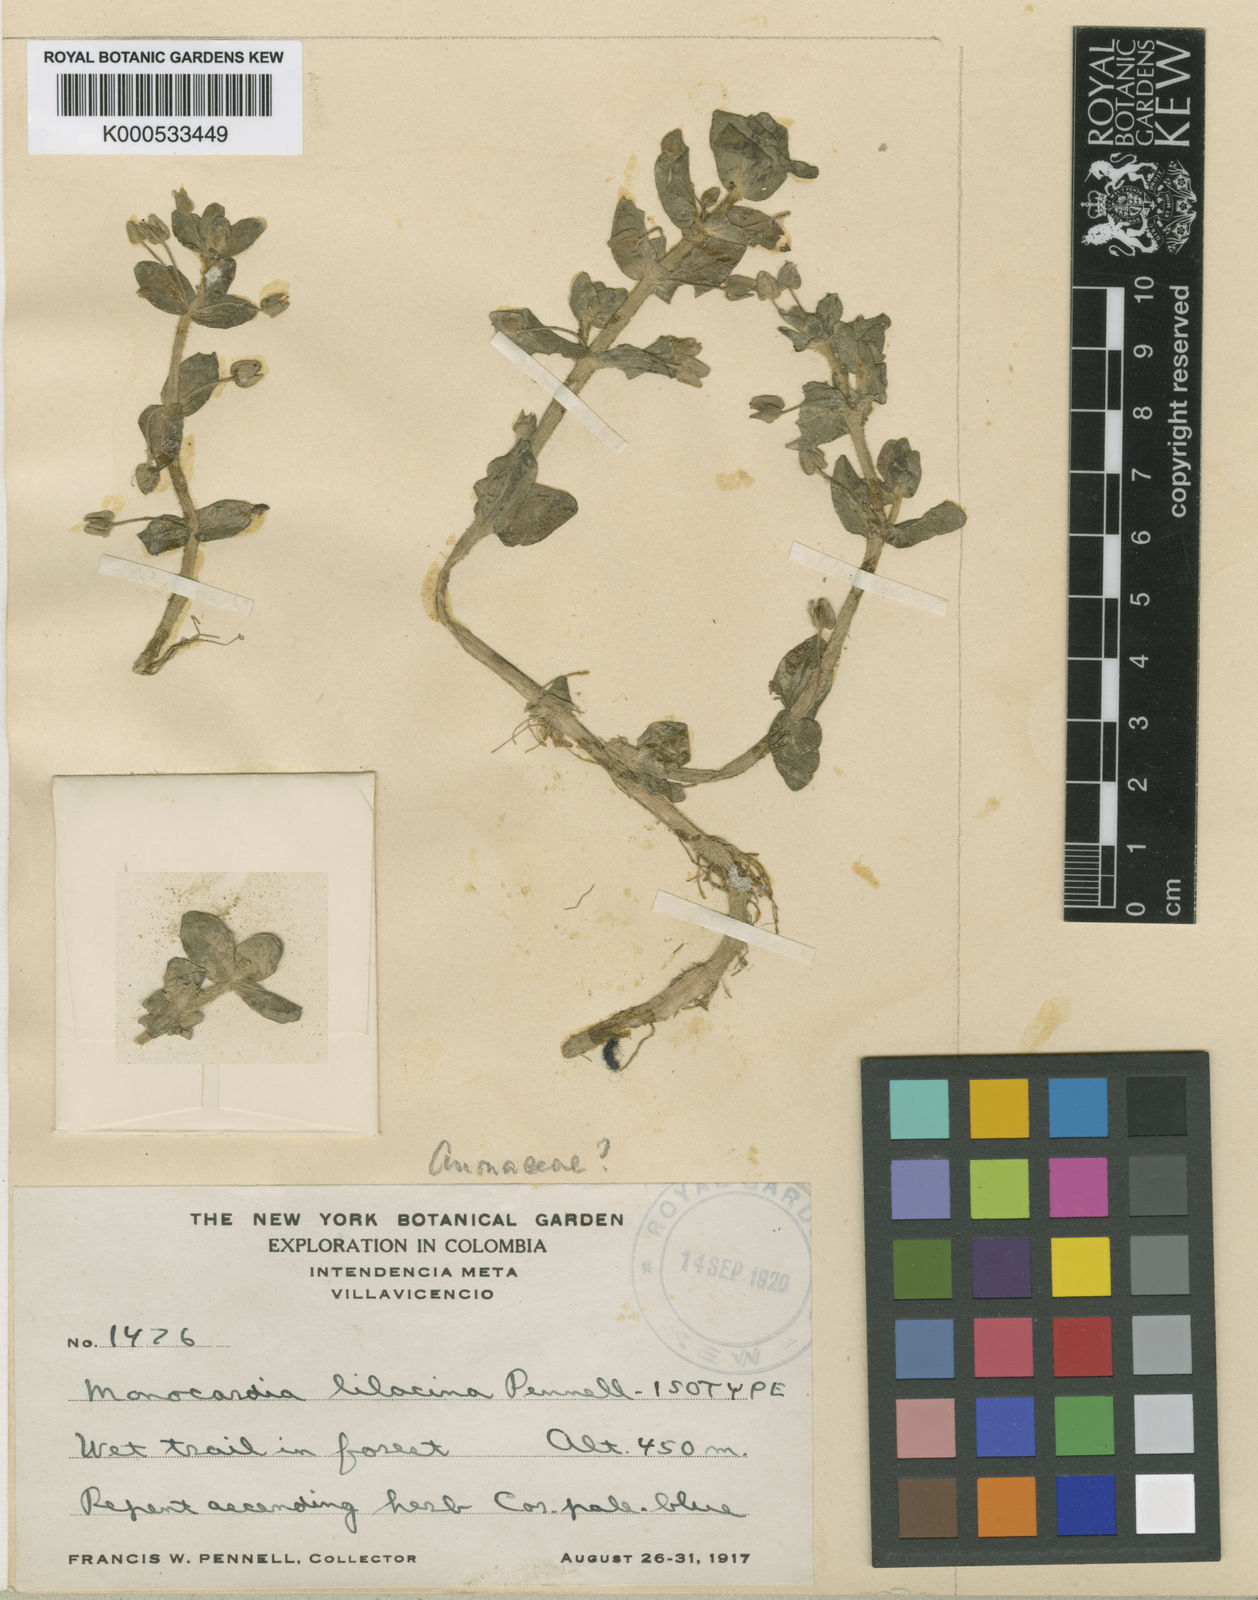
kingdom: Plantae
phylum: Tracheophyta
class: Magnoliopsida
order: Lamiales
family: Plantaginaceae
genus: Bacopa
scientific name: Bacopa salzmannii
